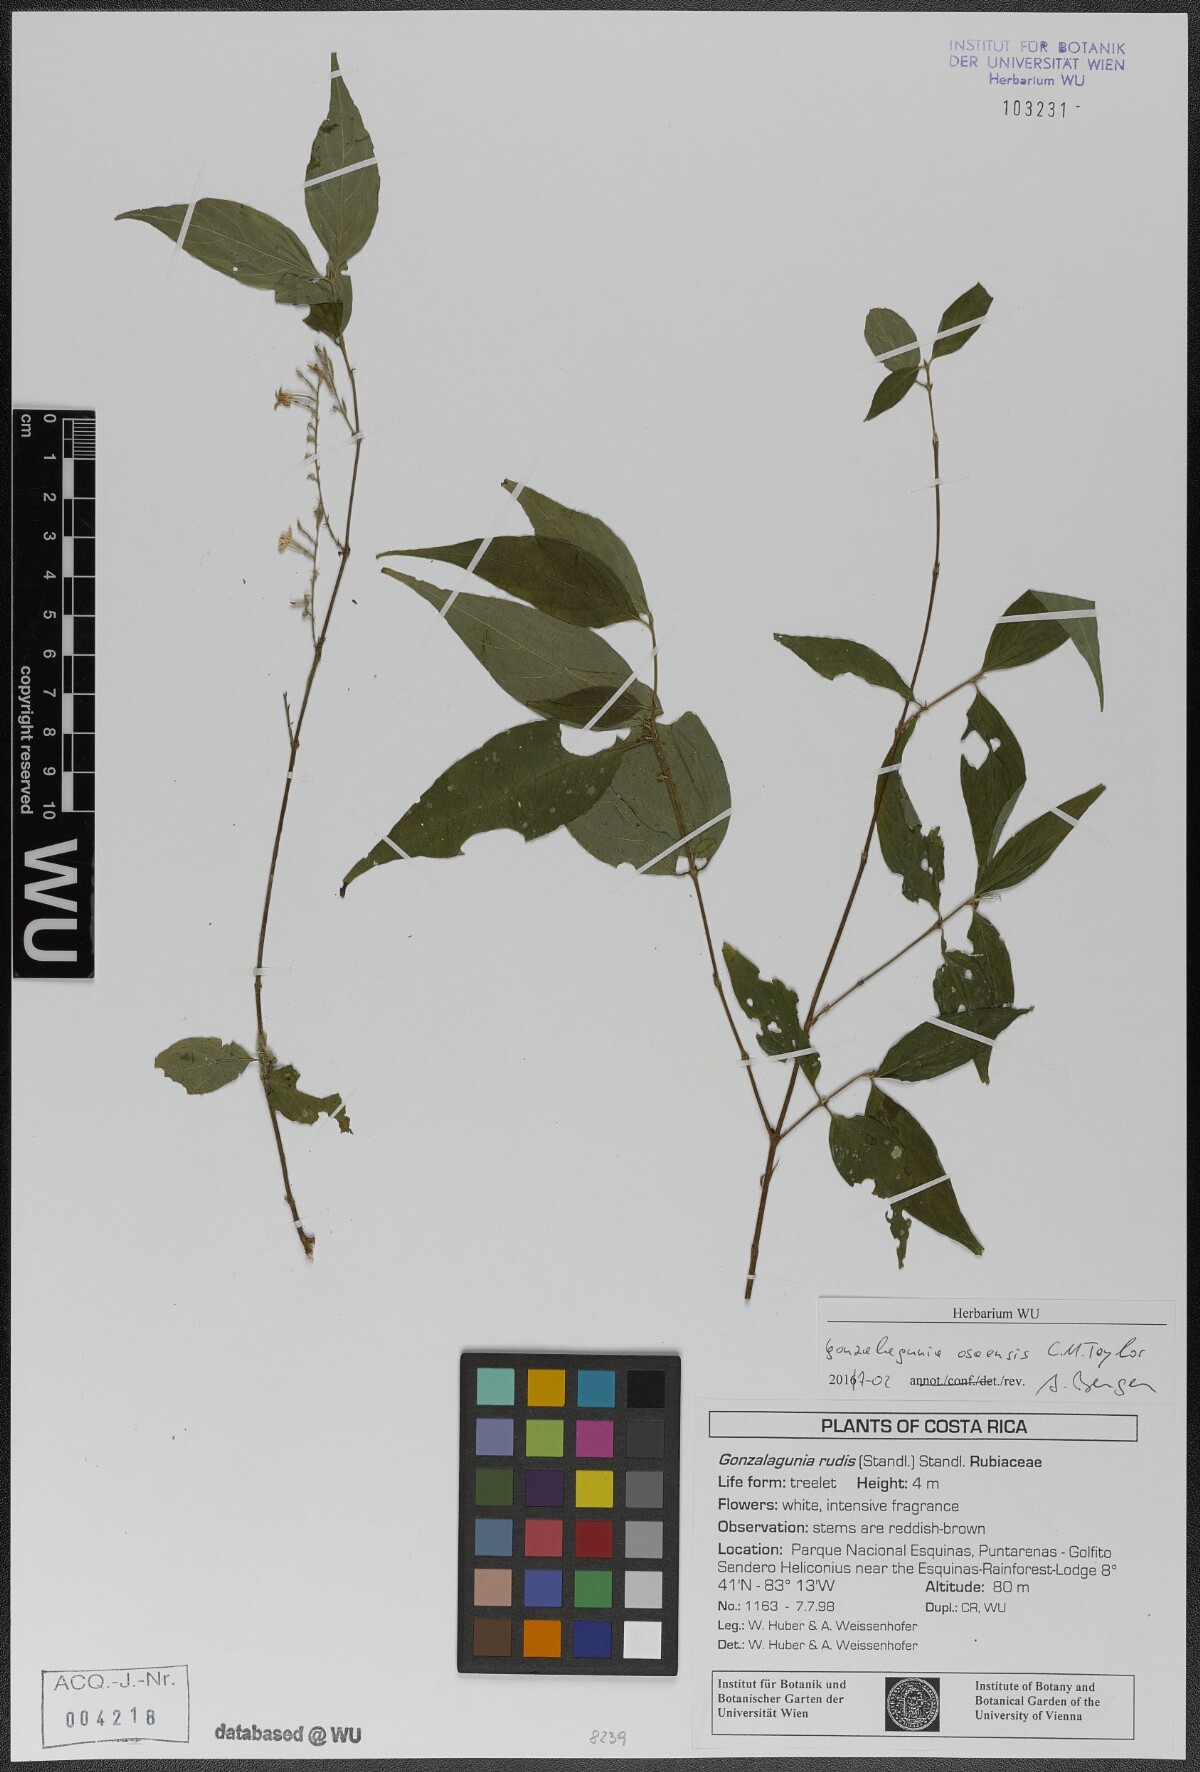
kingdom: Plantae
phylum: Tracheophyta
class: Magnoliopsida
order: Gentianales
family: Rubiaceae
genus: Gonzalagunia
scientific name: Gonzalagunia osaensis
